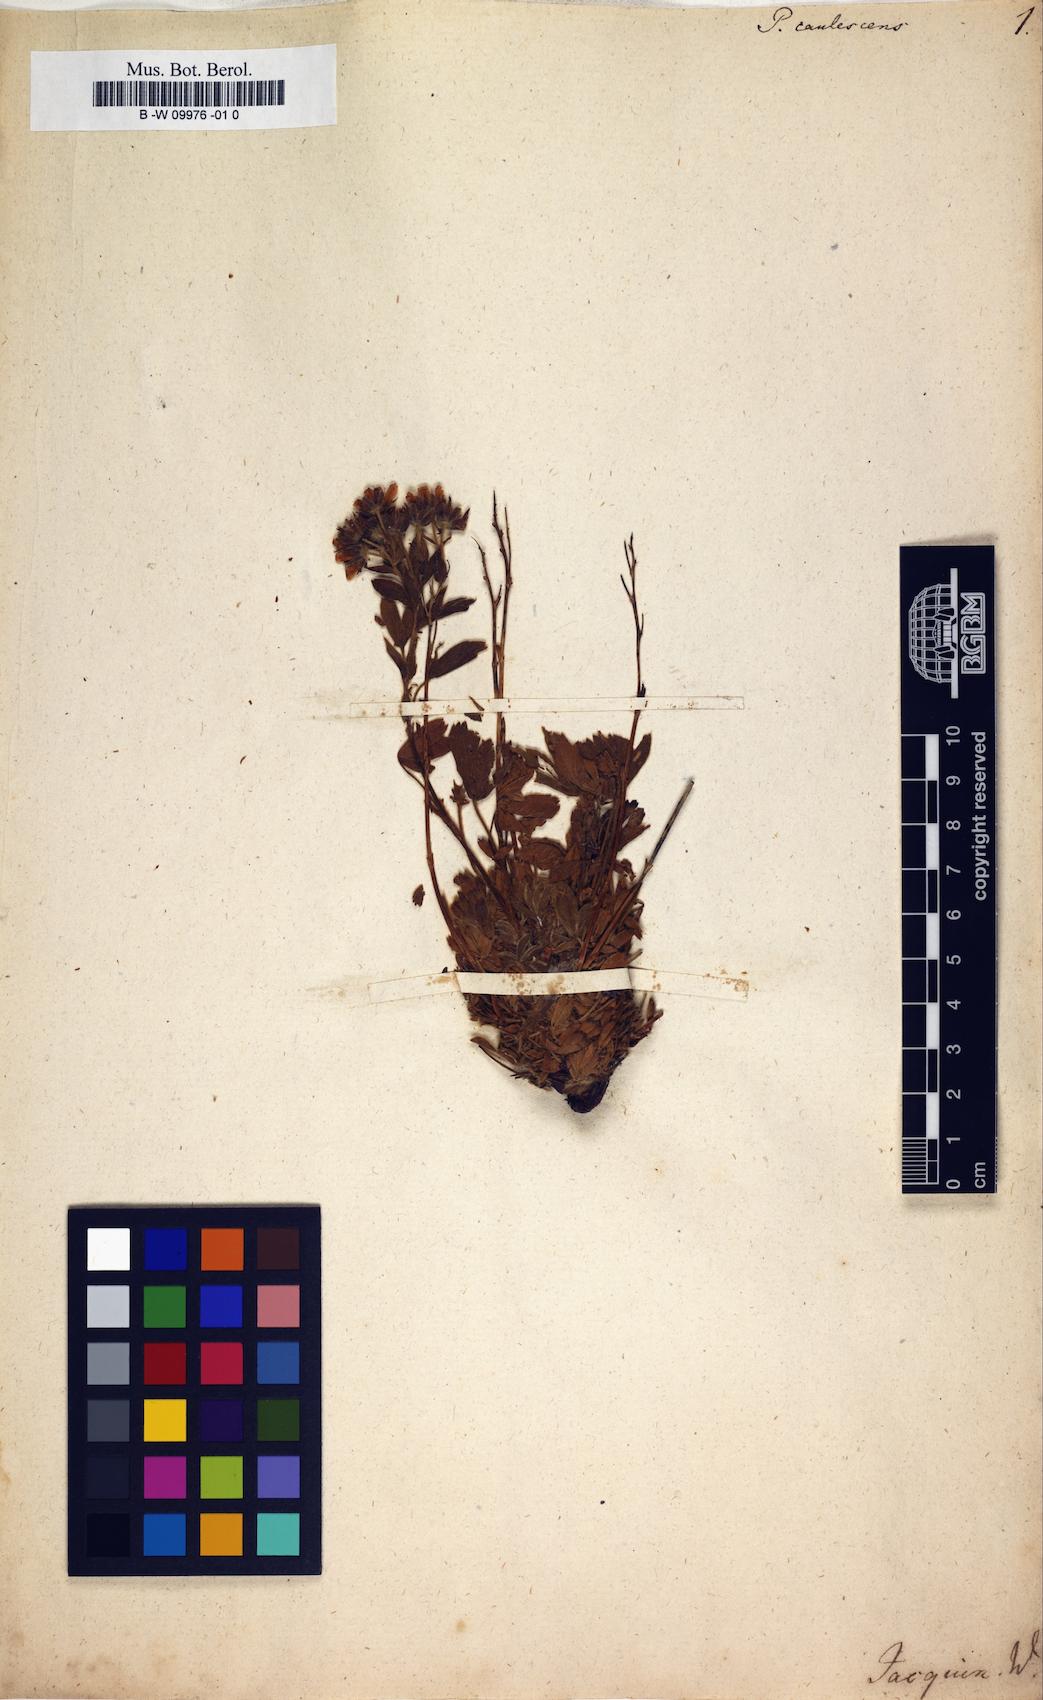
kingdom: Plantae
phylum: Tracheophyta
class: Magnoliopsida
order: Rosales
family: Rosaceae
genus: Potentilla
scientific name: Potentilla caulescens
